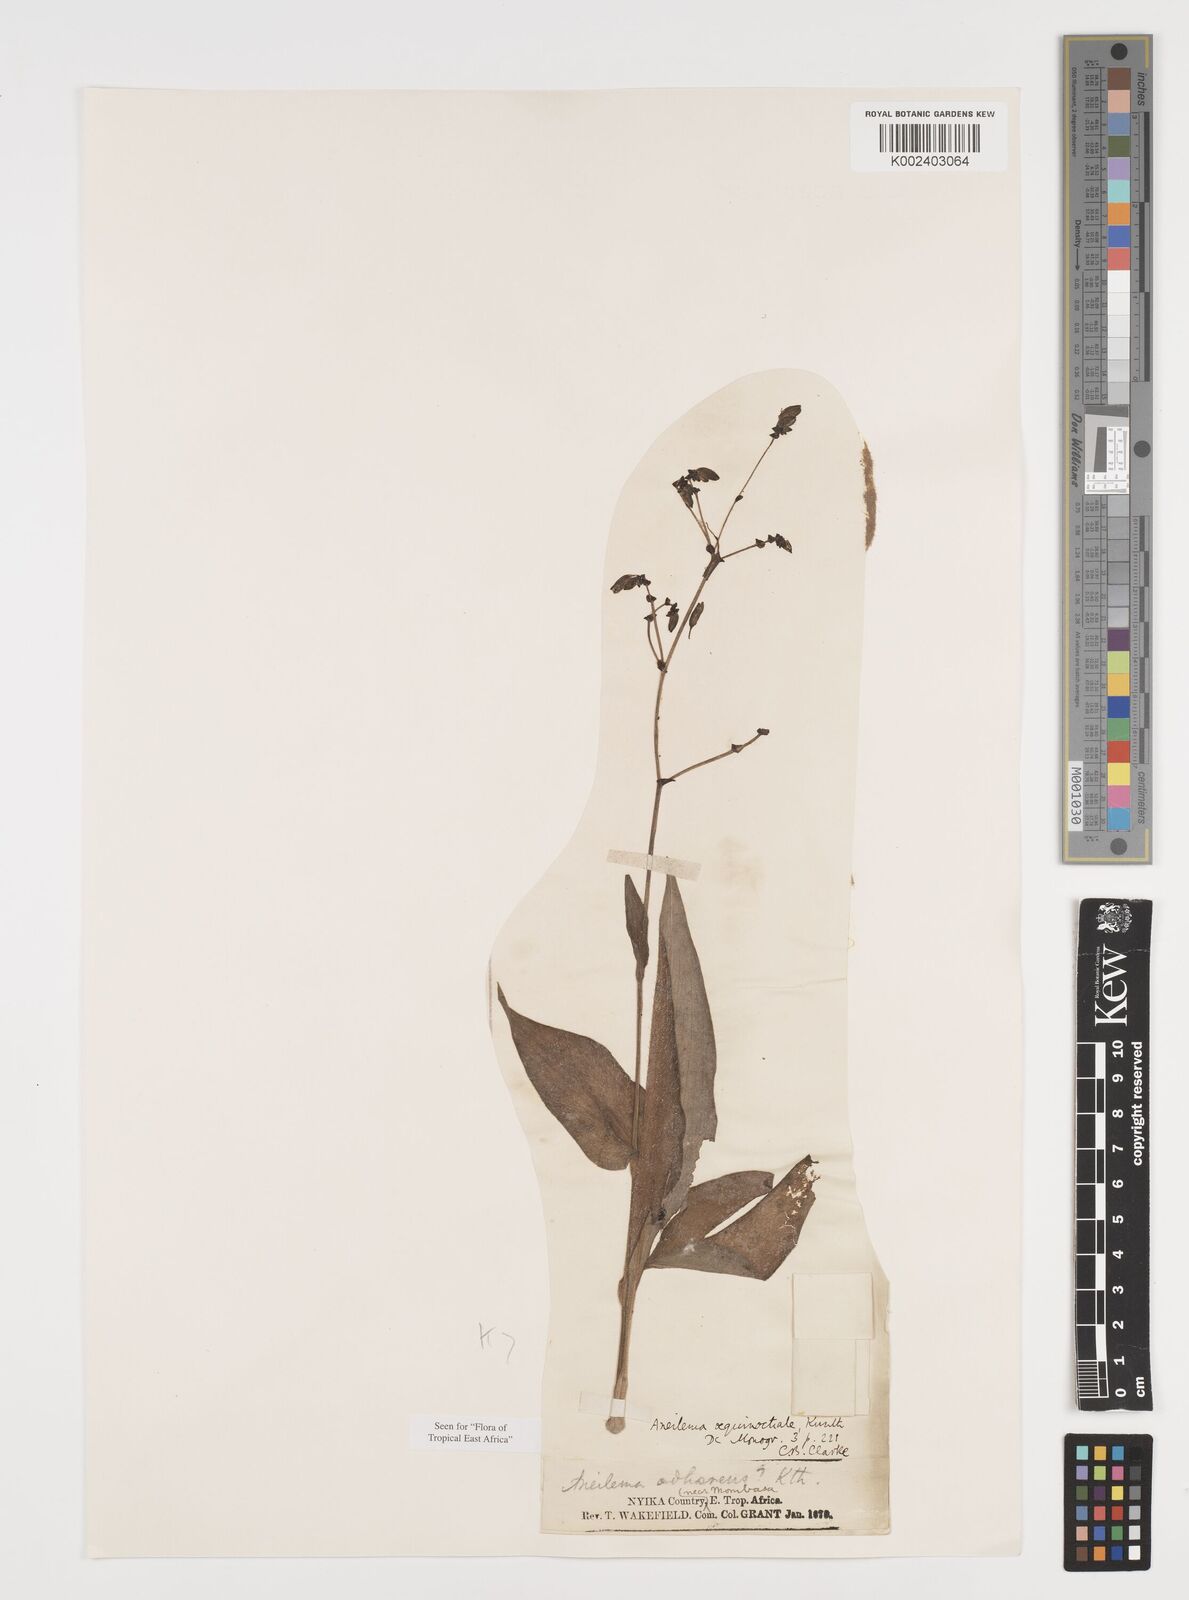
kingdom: Plantae
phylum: Tracheophyta
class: Liliopsida
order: Commelinales
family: Commelinaceae
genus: Aneilema
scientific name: Aneilema aequinoctiale
